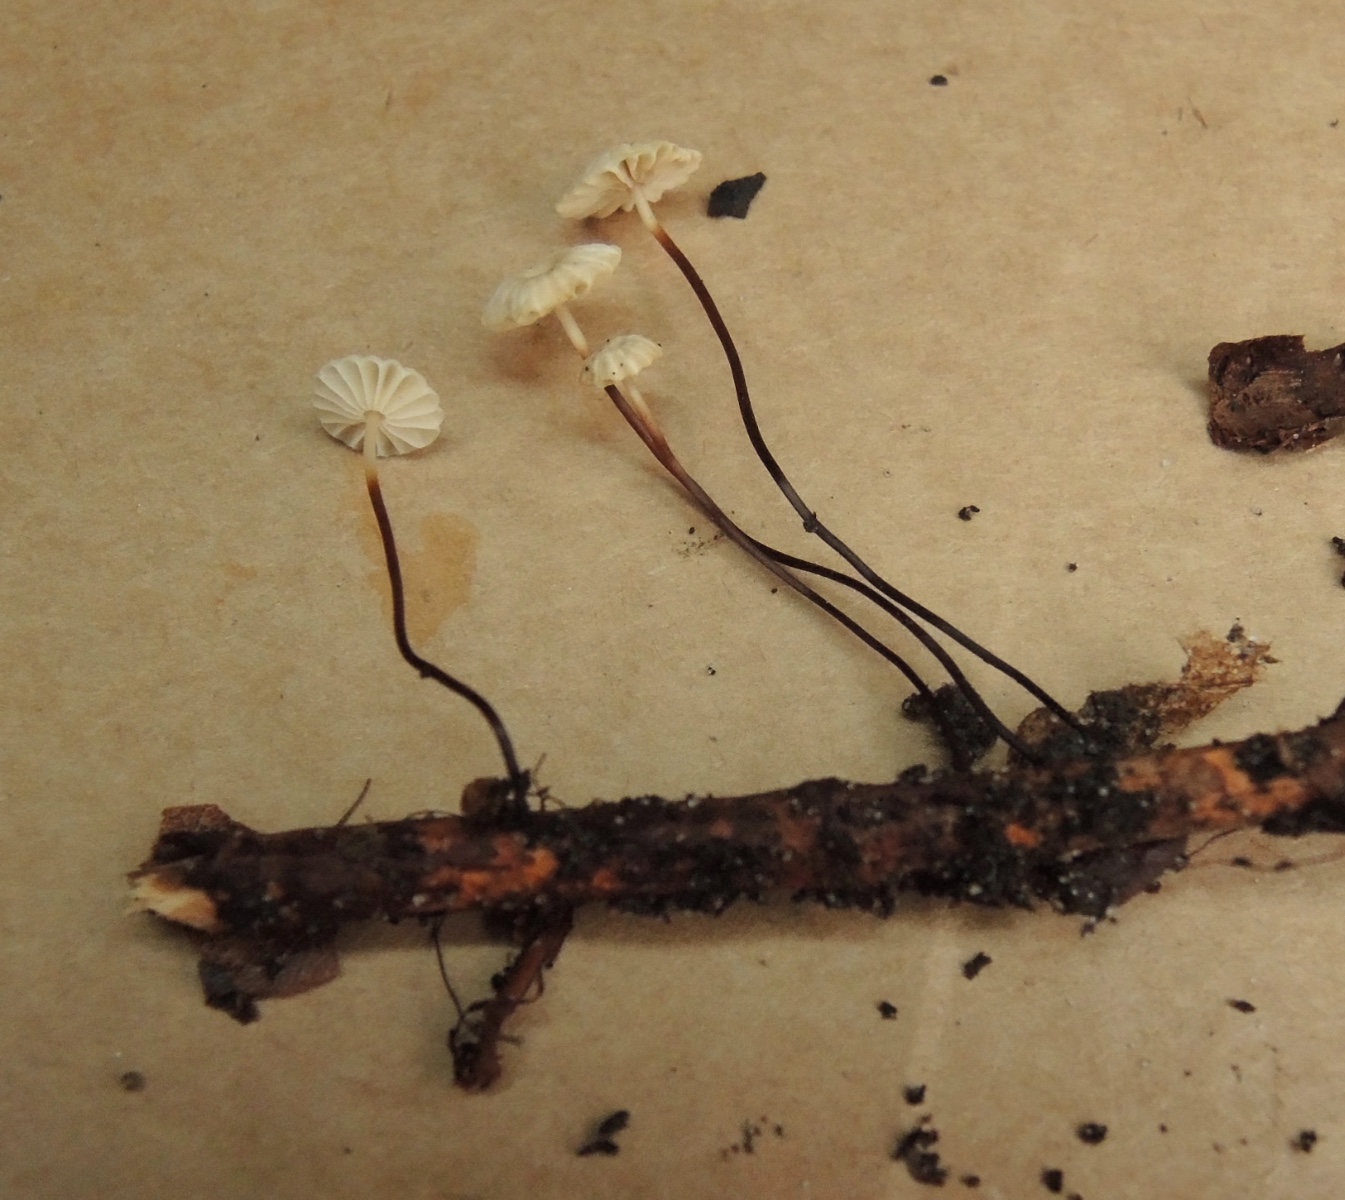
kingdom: Fungi
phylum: Basidiomycota
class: Agaricomycetes
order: Agaricales
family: Marasmiaceae
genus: Marasmius
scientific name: Marasmius rotula
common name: hjul-bruskhat
